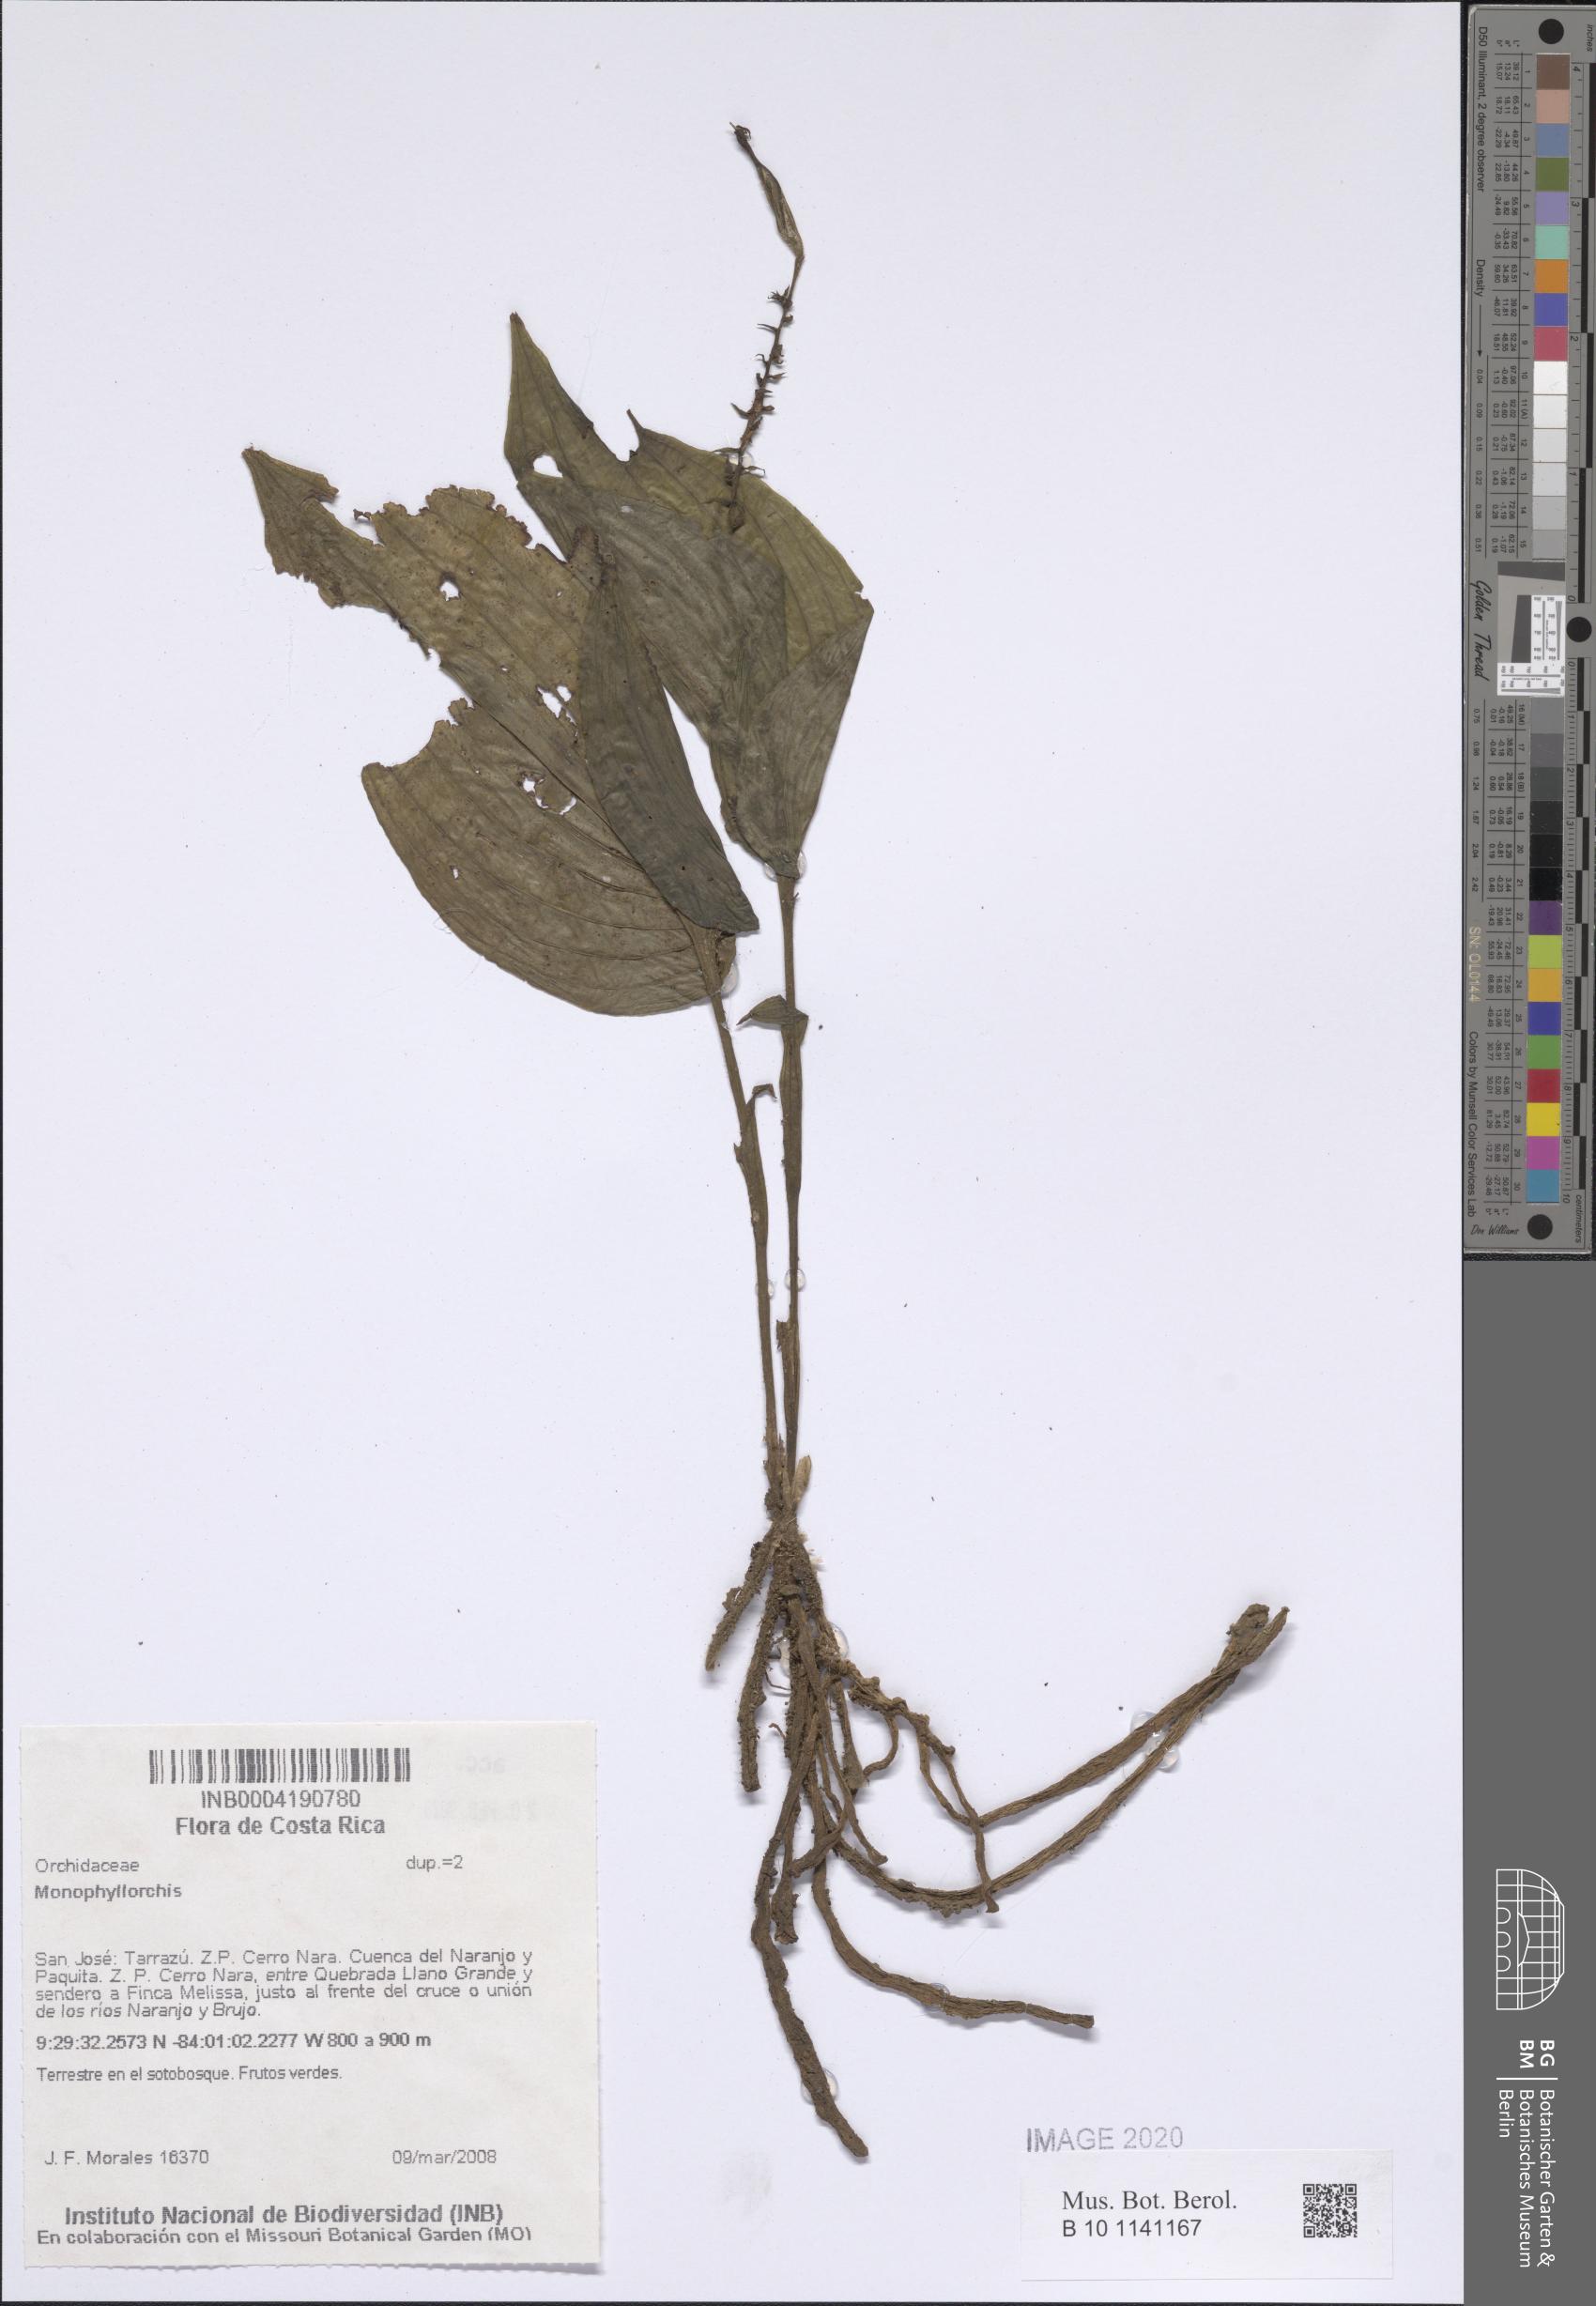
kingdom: Plantae
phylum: Tracheophyta
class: Liliopsida
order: Asparagales
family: Orchidaceae
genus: Monophyllorchis
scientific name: Monophyllorchis
